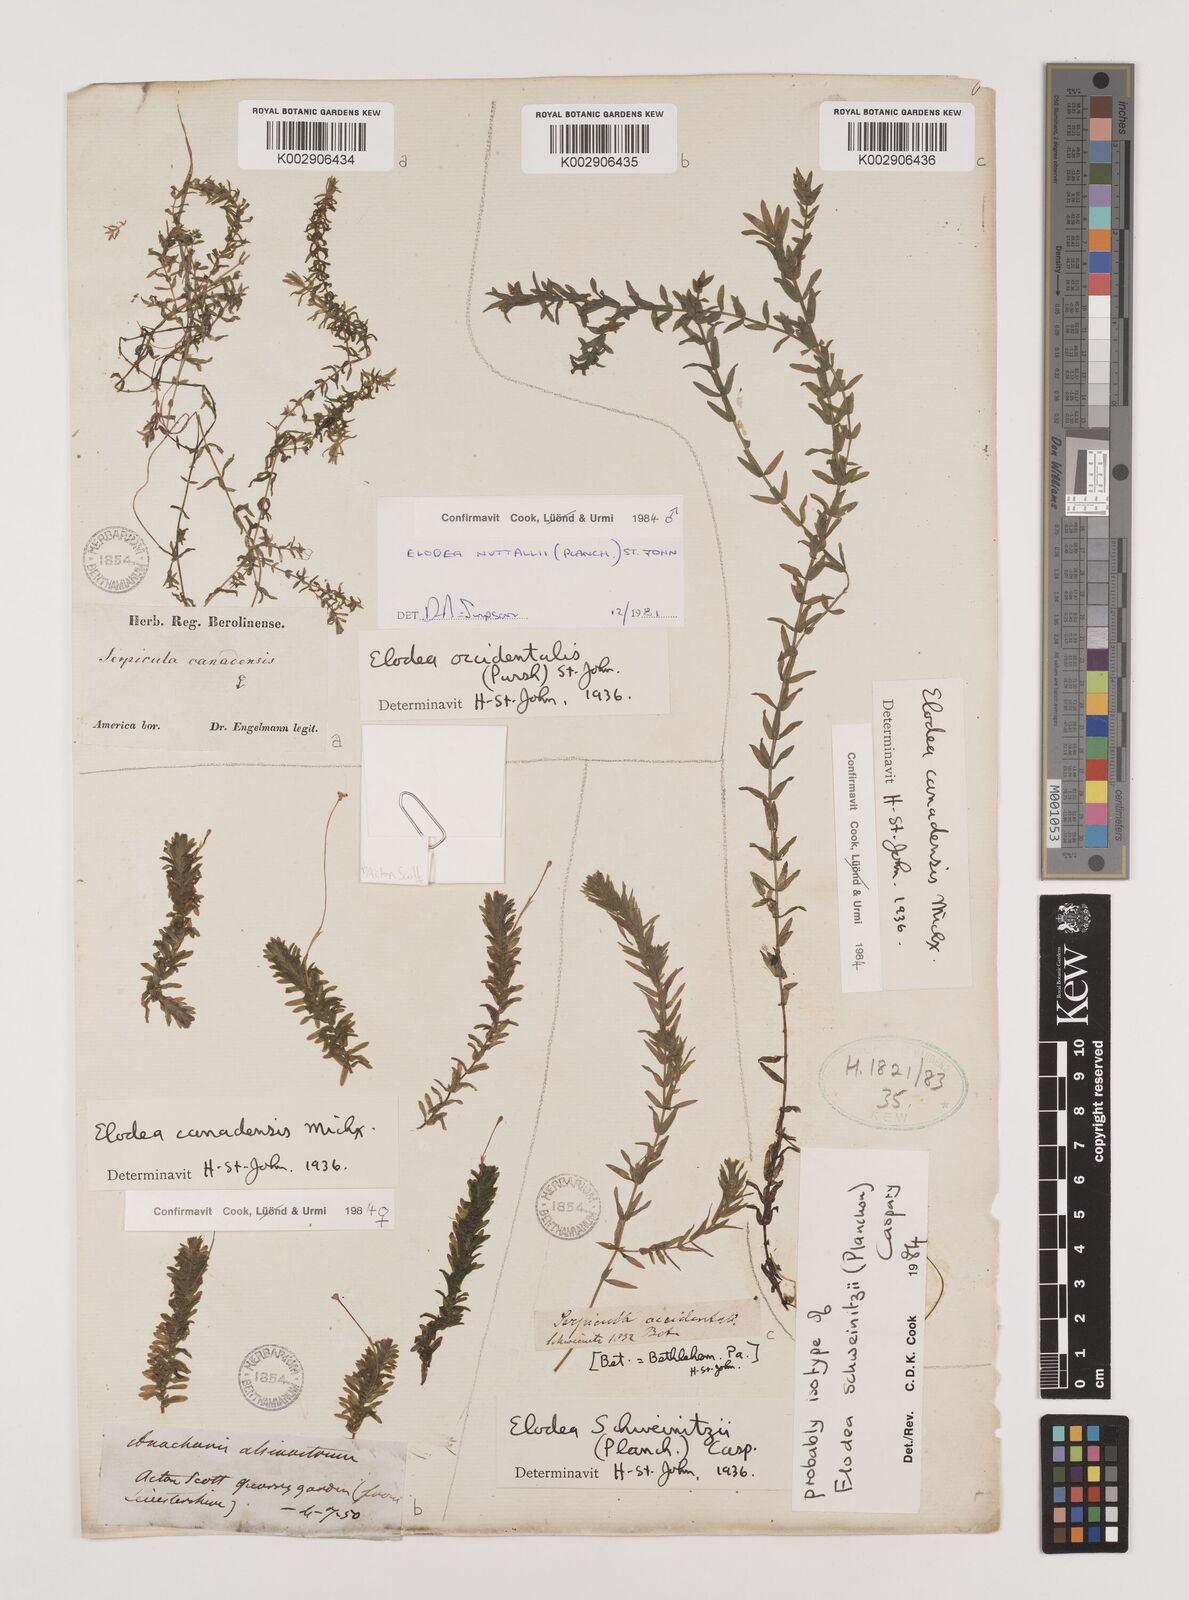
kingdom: Plantae
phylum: Tracheophyta
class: Liliopsida
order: Alismatales
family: Hydrocharitaceae
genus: Elodea
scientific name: Elodea canadensis
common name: Canadian waterweed
